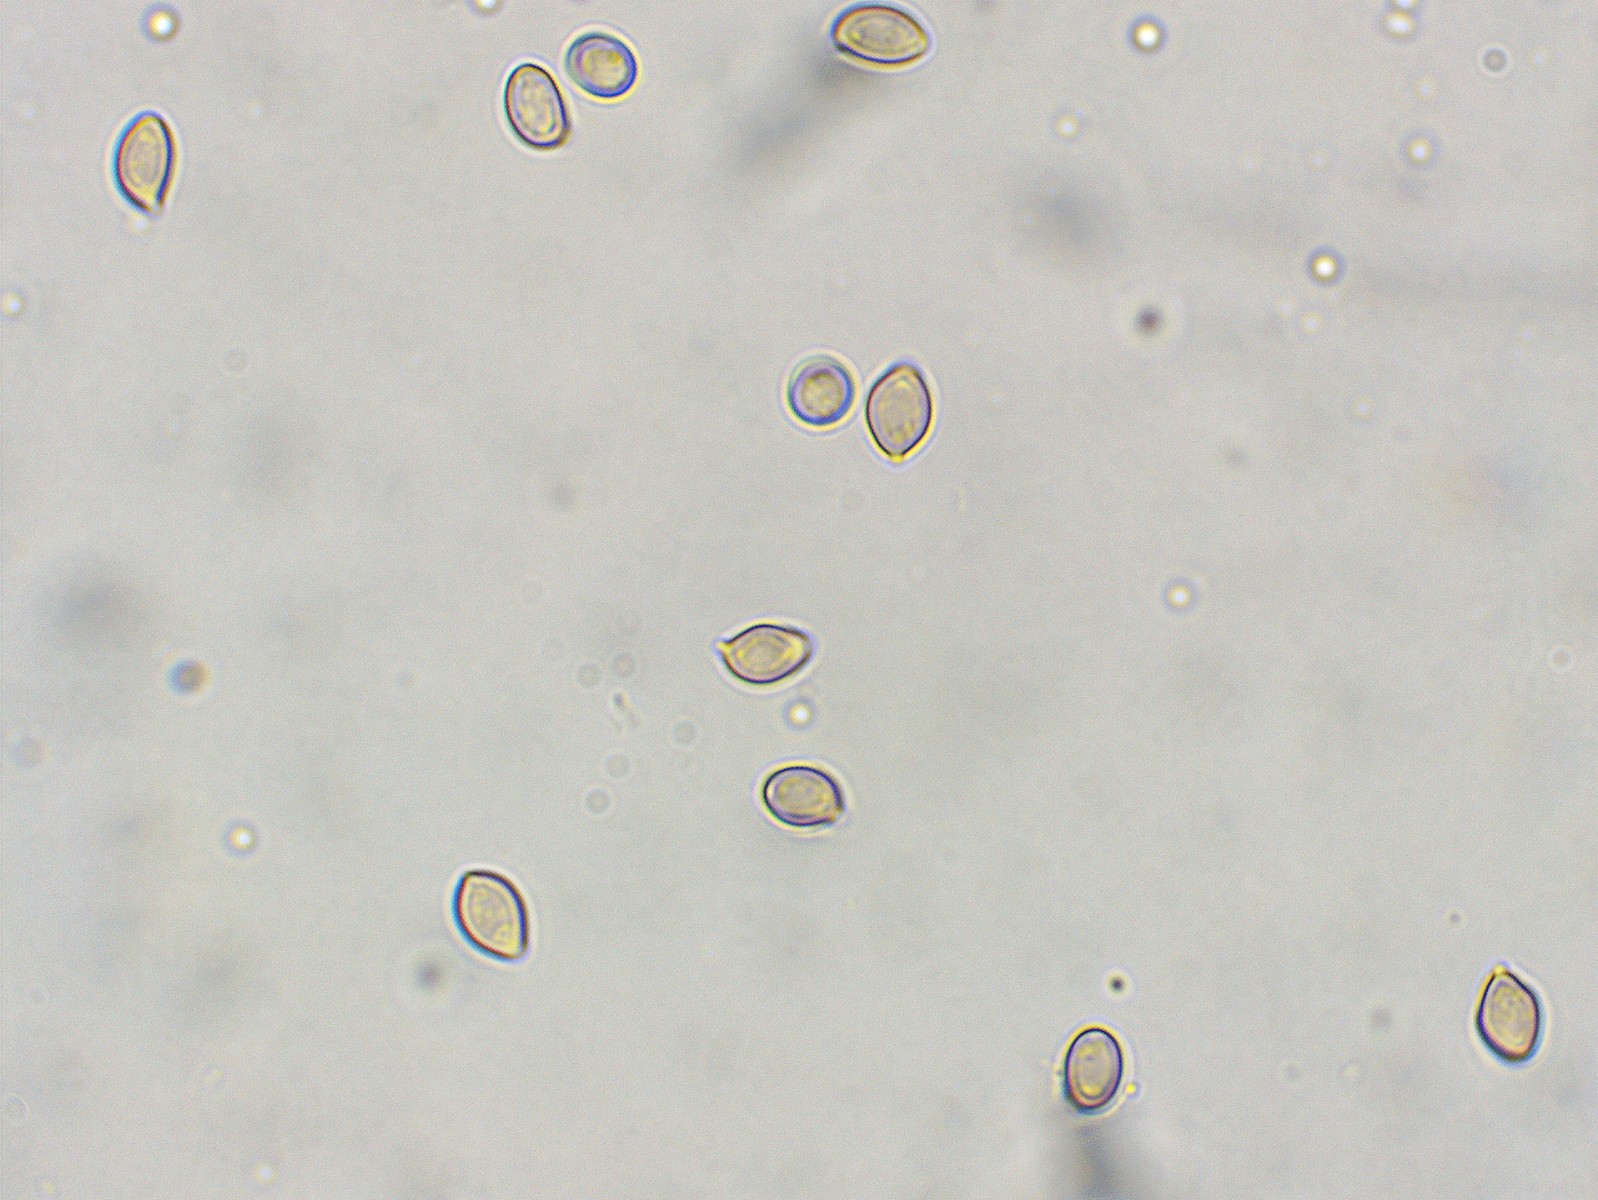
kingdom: Fungi
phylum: Basidiomycota
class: Agaricomycetes
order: Agaricales
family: Strophariaceae
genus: Deconica
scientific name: Deconica crobula
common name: træflis-stråhat
